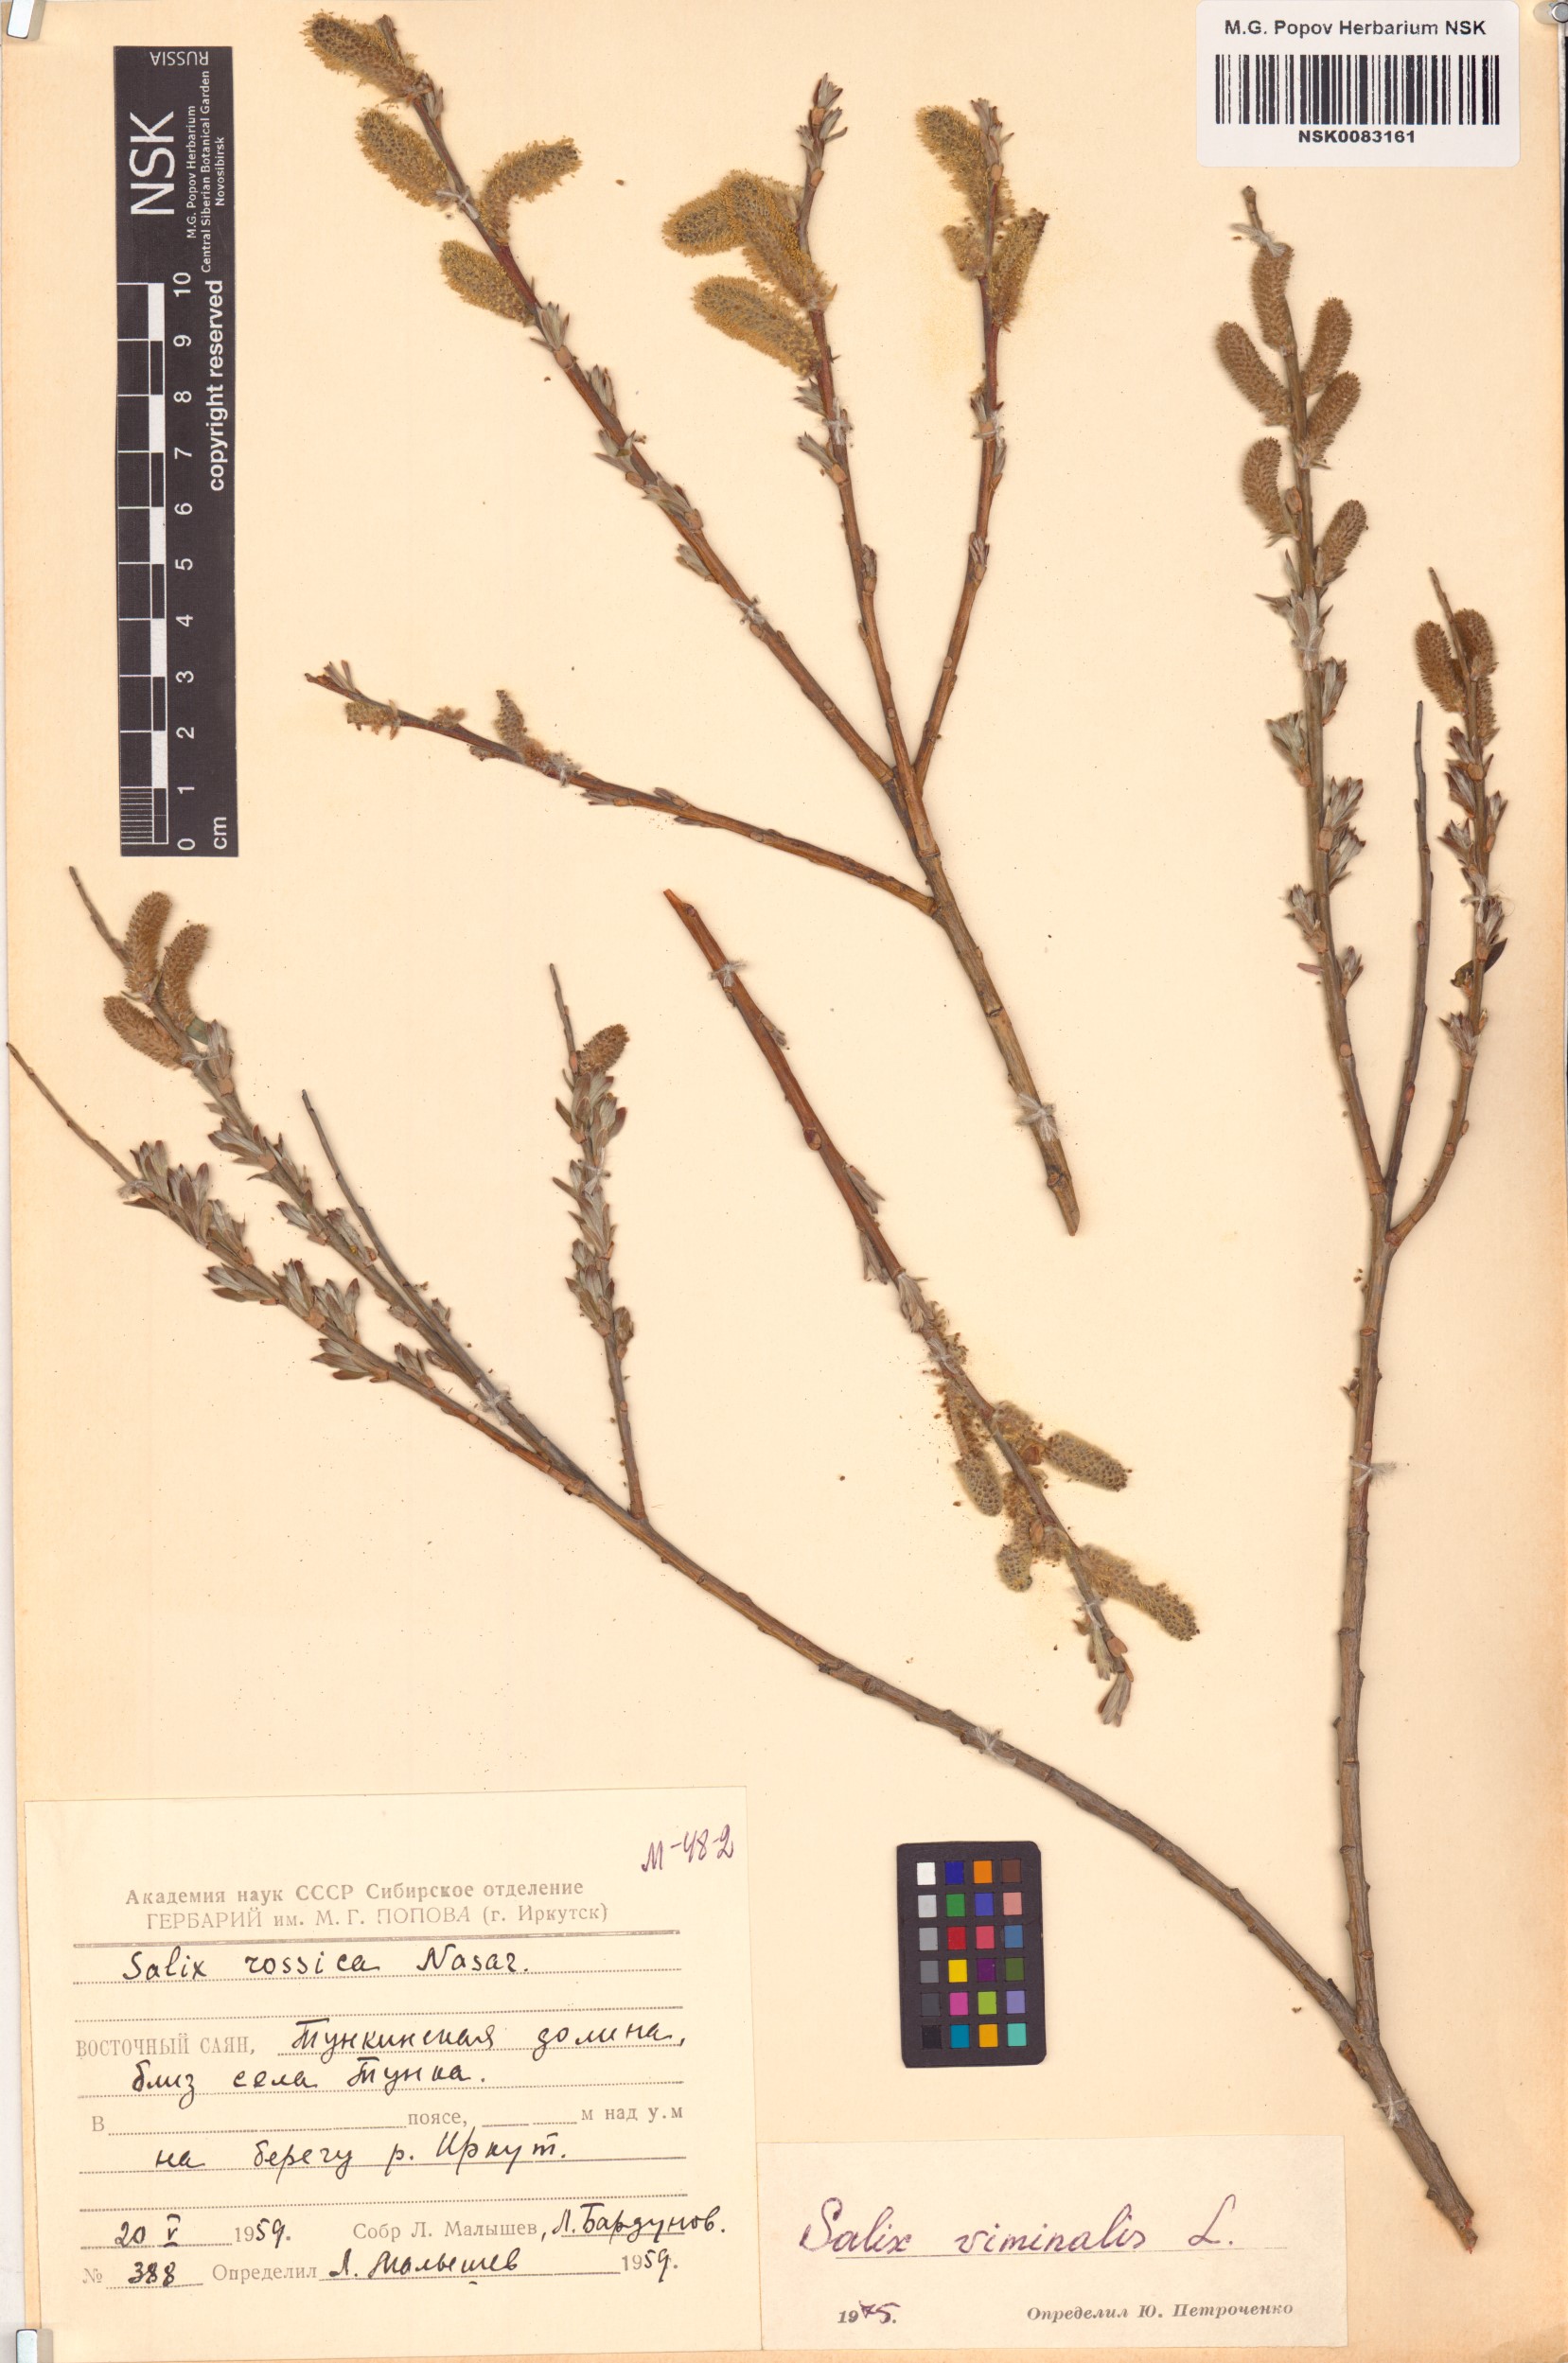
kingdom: Plantae
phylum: Tracheophyta
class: Magnoliopsida
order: Malpighiales
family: Salicaceae
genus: Salix
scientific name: Salix viminalis
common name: Osier
